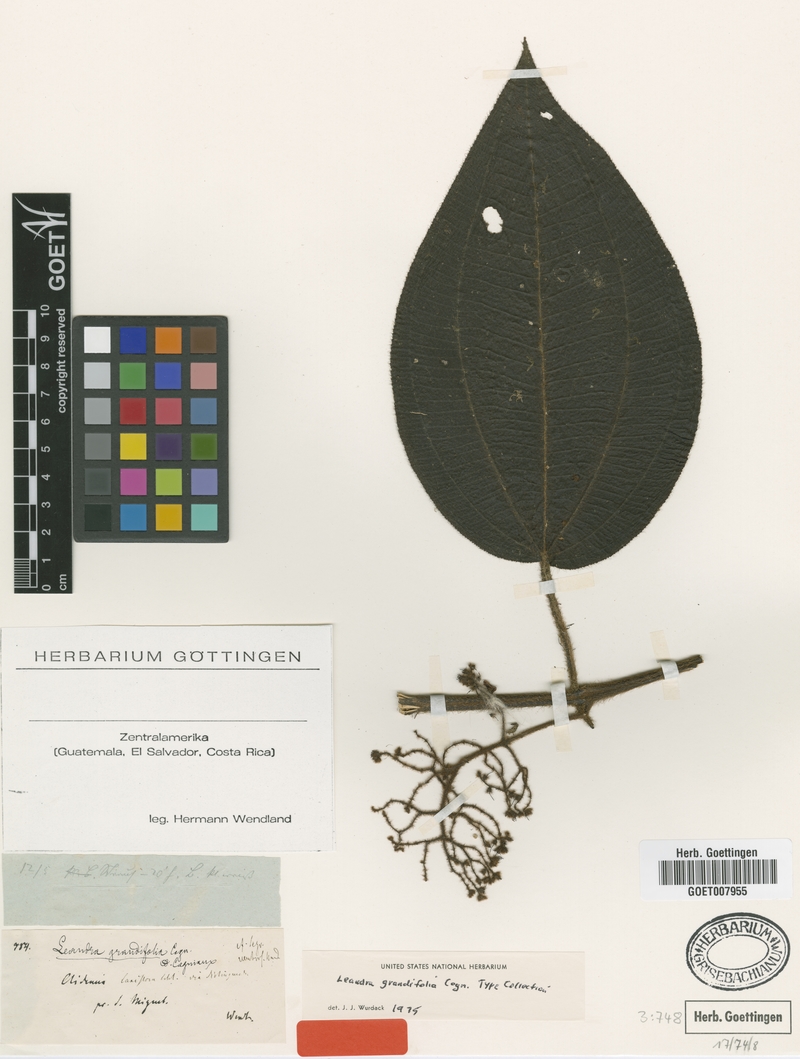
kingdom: Plantae
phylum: Tracheophyta
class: Magnoliopsida
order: Myrtales
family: Melastomataceae
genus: Miconia
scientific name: Miconia secungrandifolia
